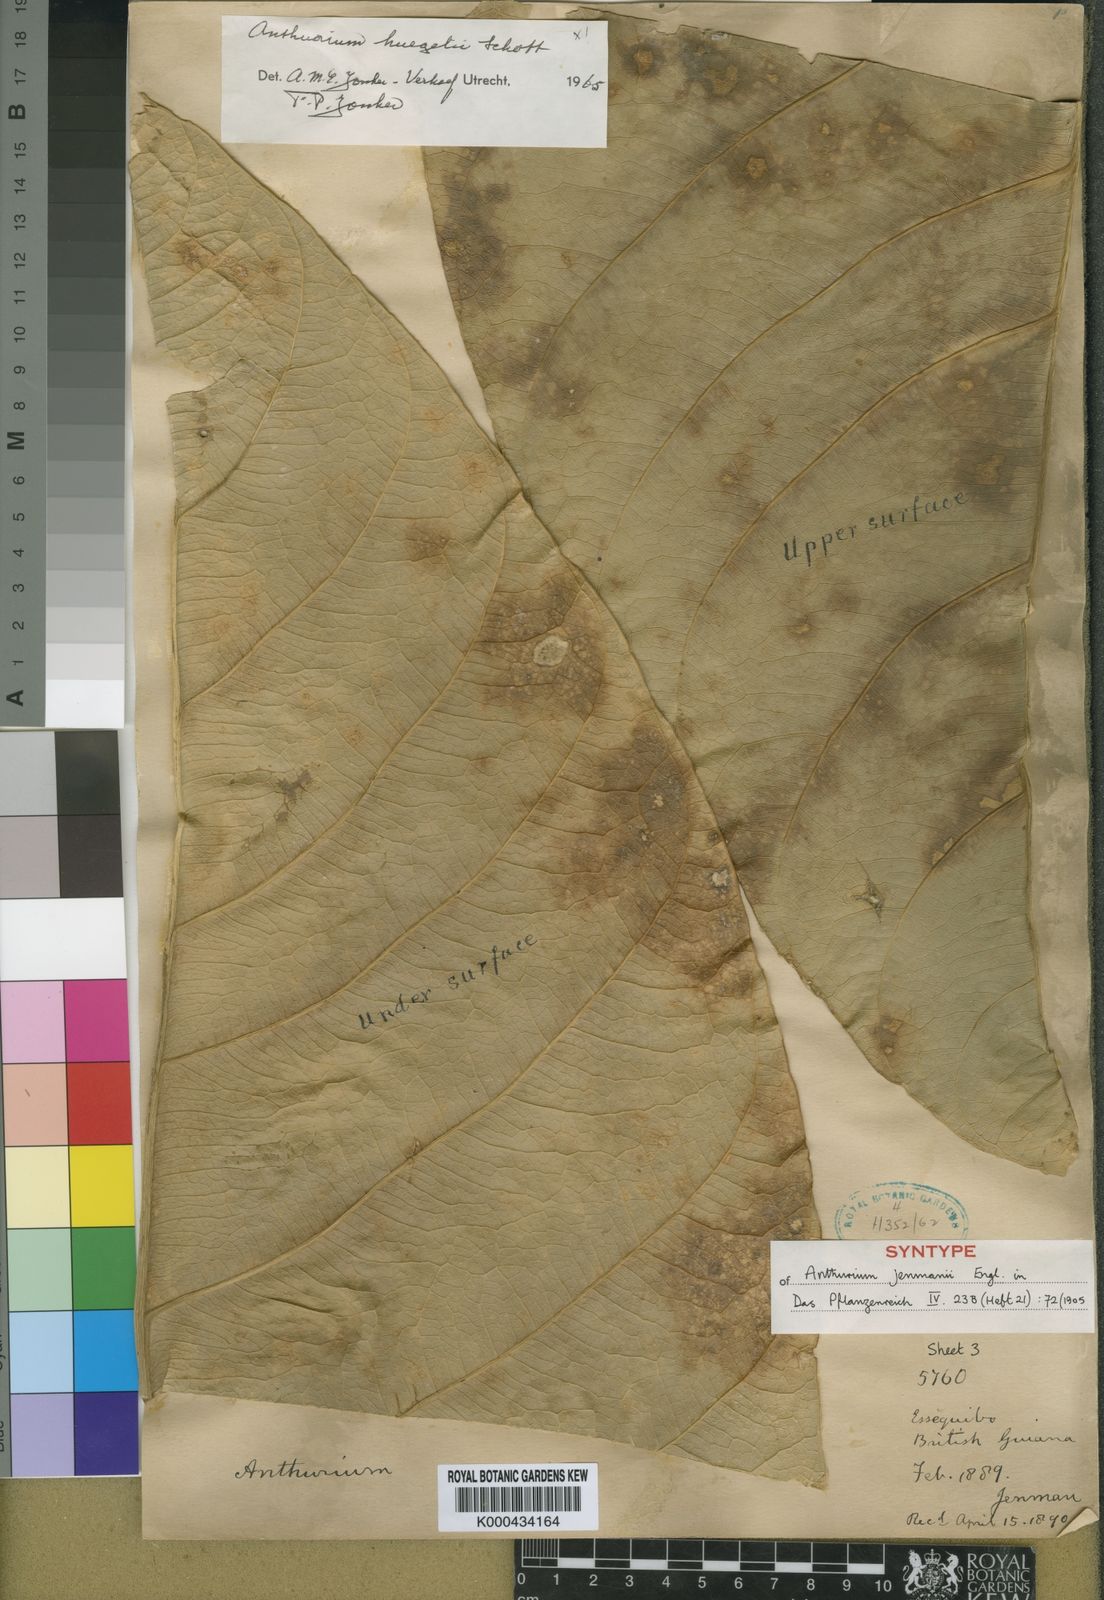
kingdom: Plantae
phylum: Tracheophyta
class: Liliopsida
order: Alismatales
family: Araceae
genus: Anthurium
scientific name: Anthurium jenmanii
